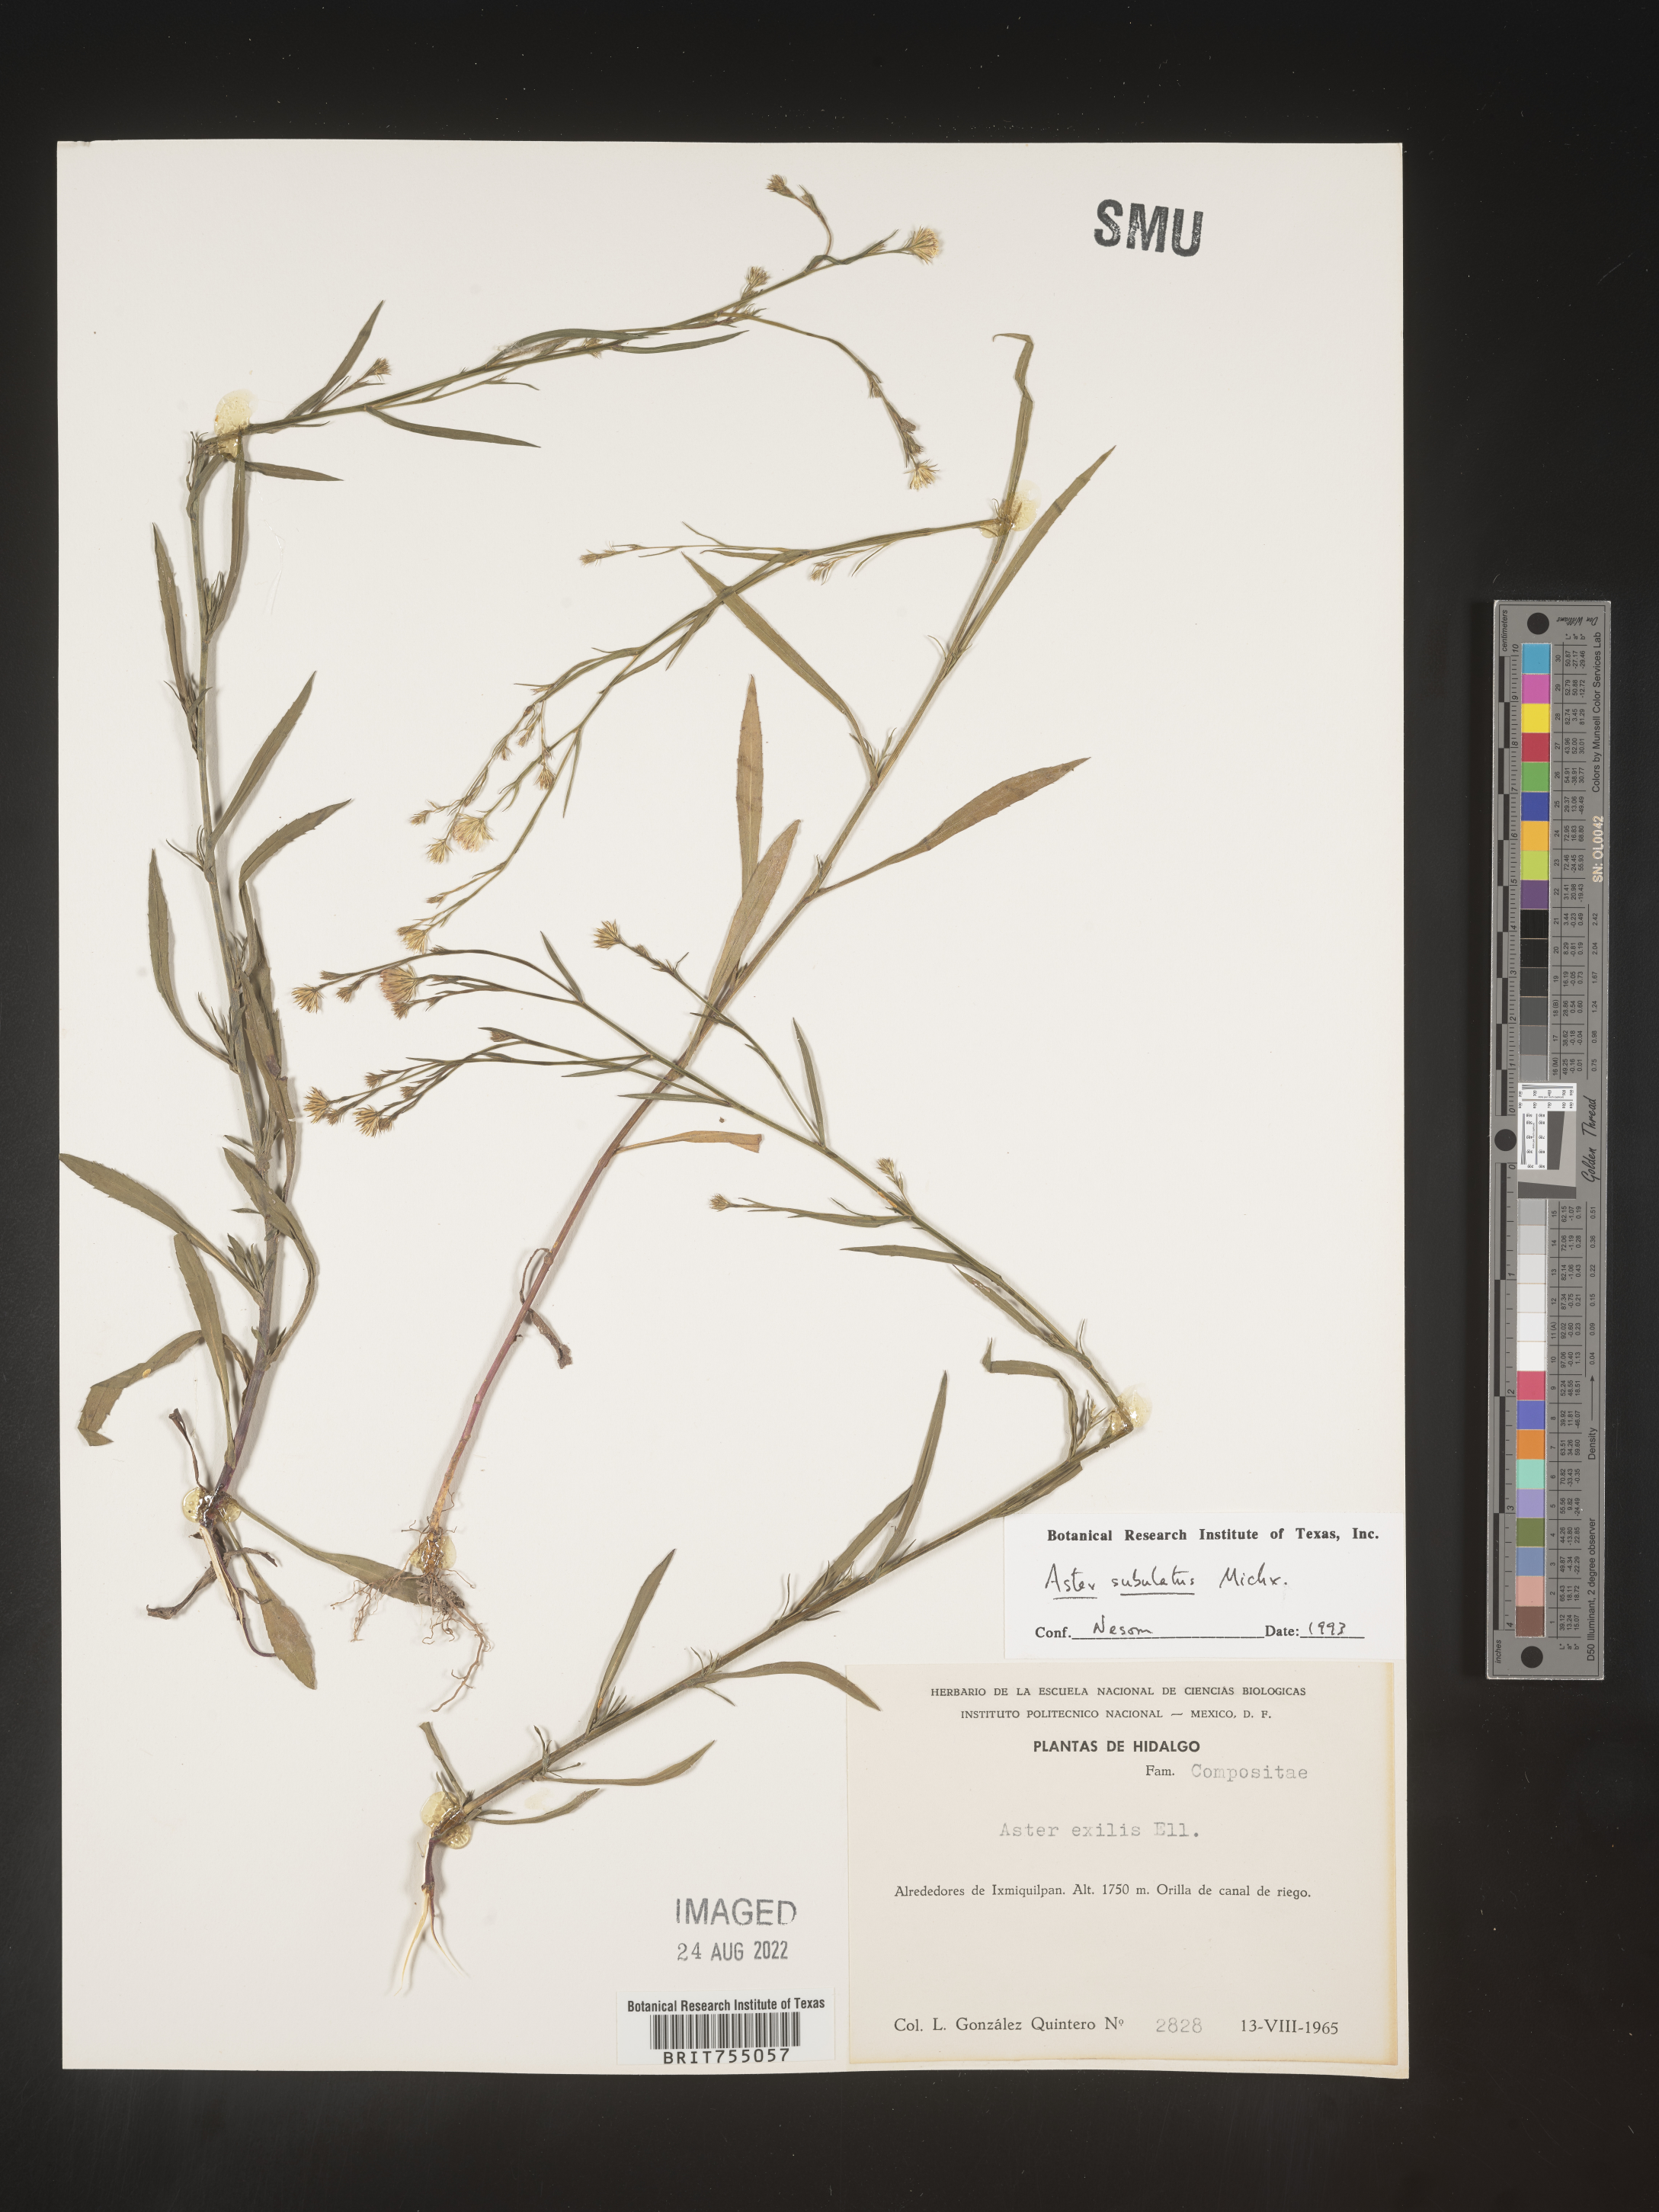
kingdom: Plantae
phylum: Tracheophyta
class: Magnoliopsida
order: Asterales
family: Asteraceae
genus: Symphyotrichum
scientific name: Symphyotrichum expansum
